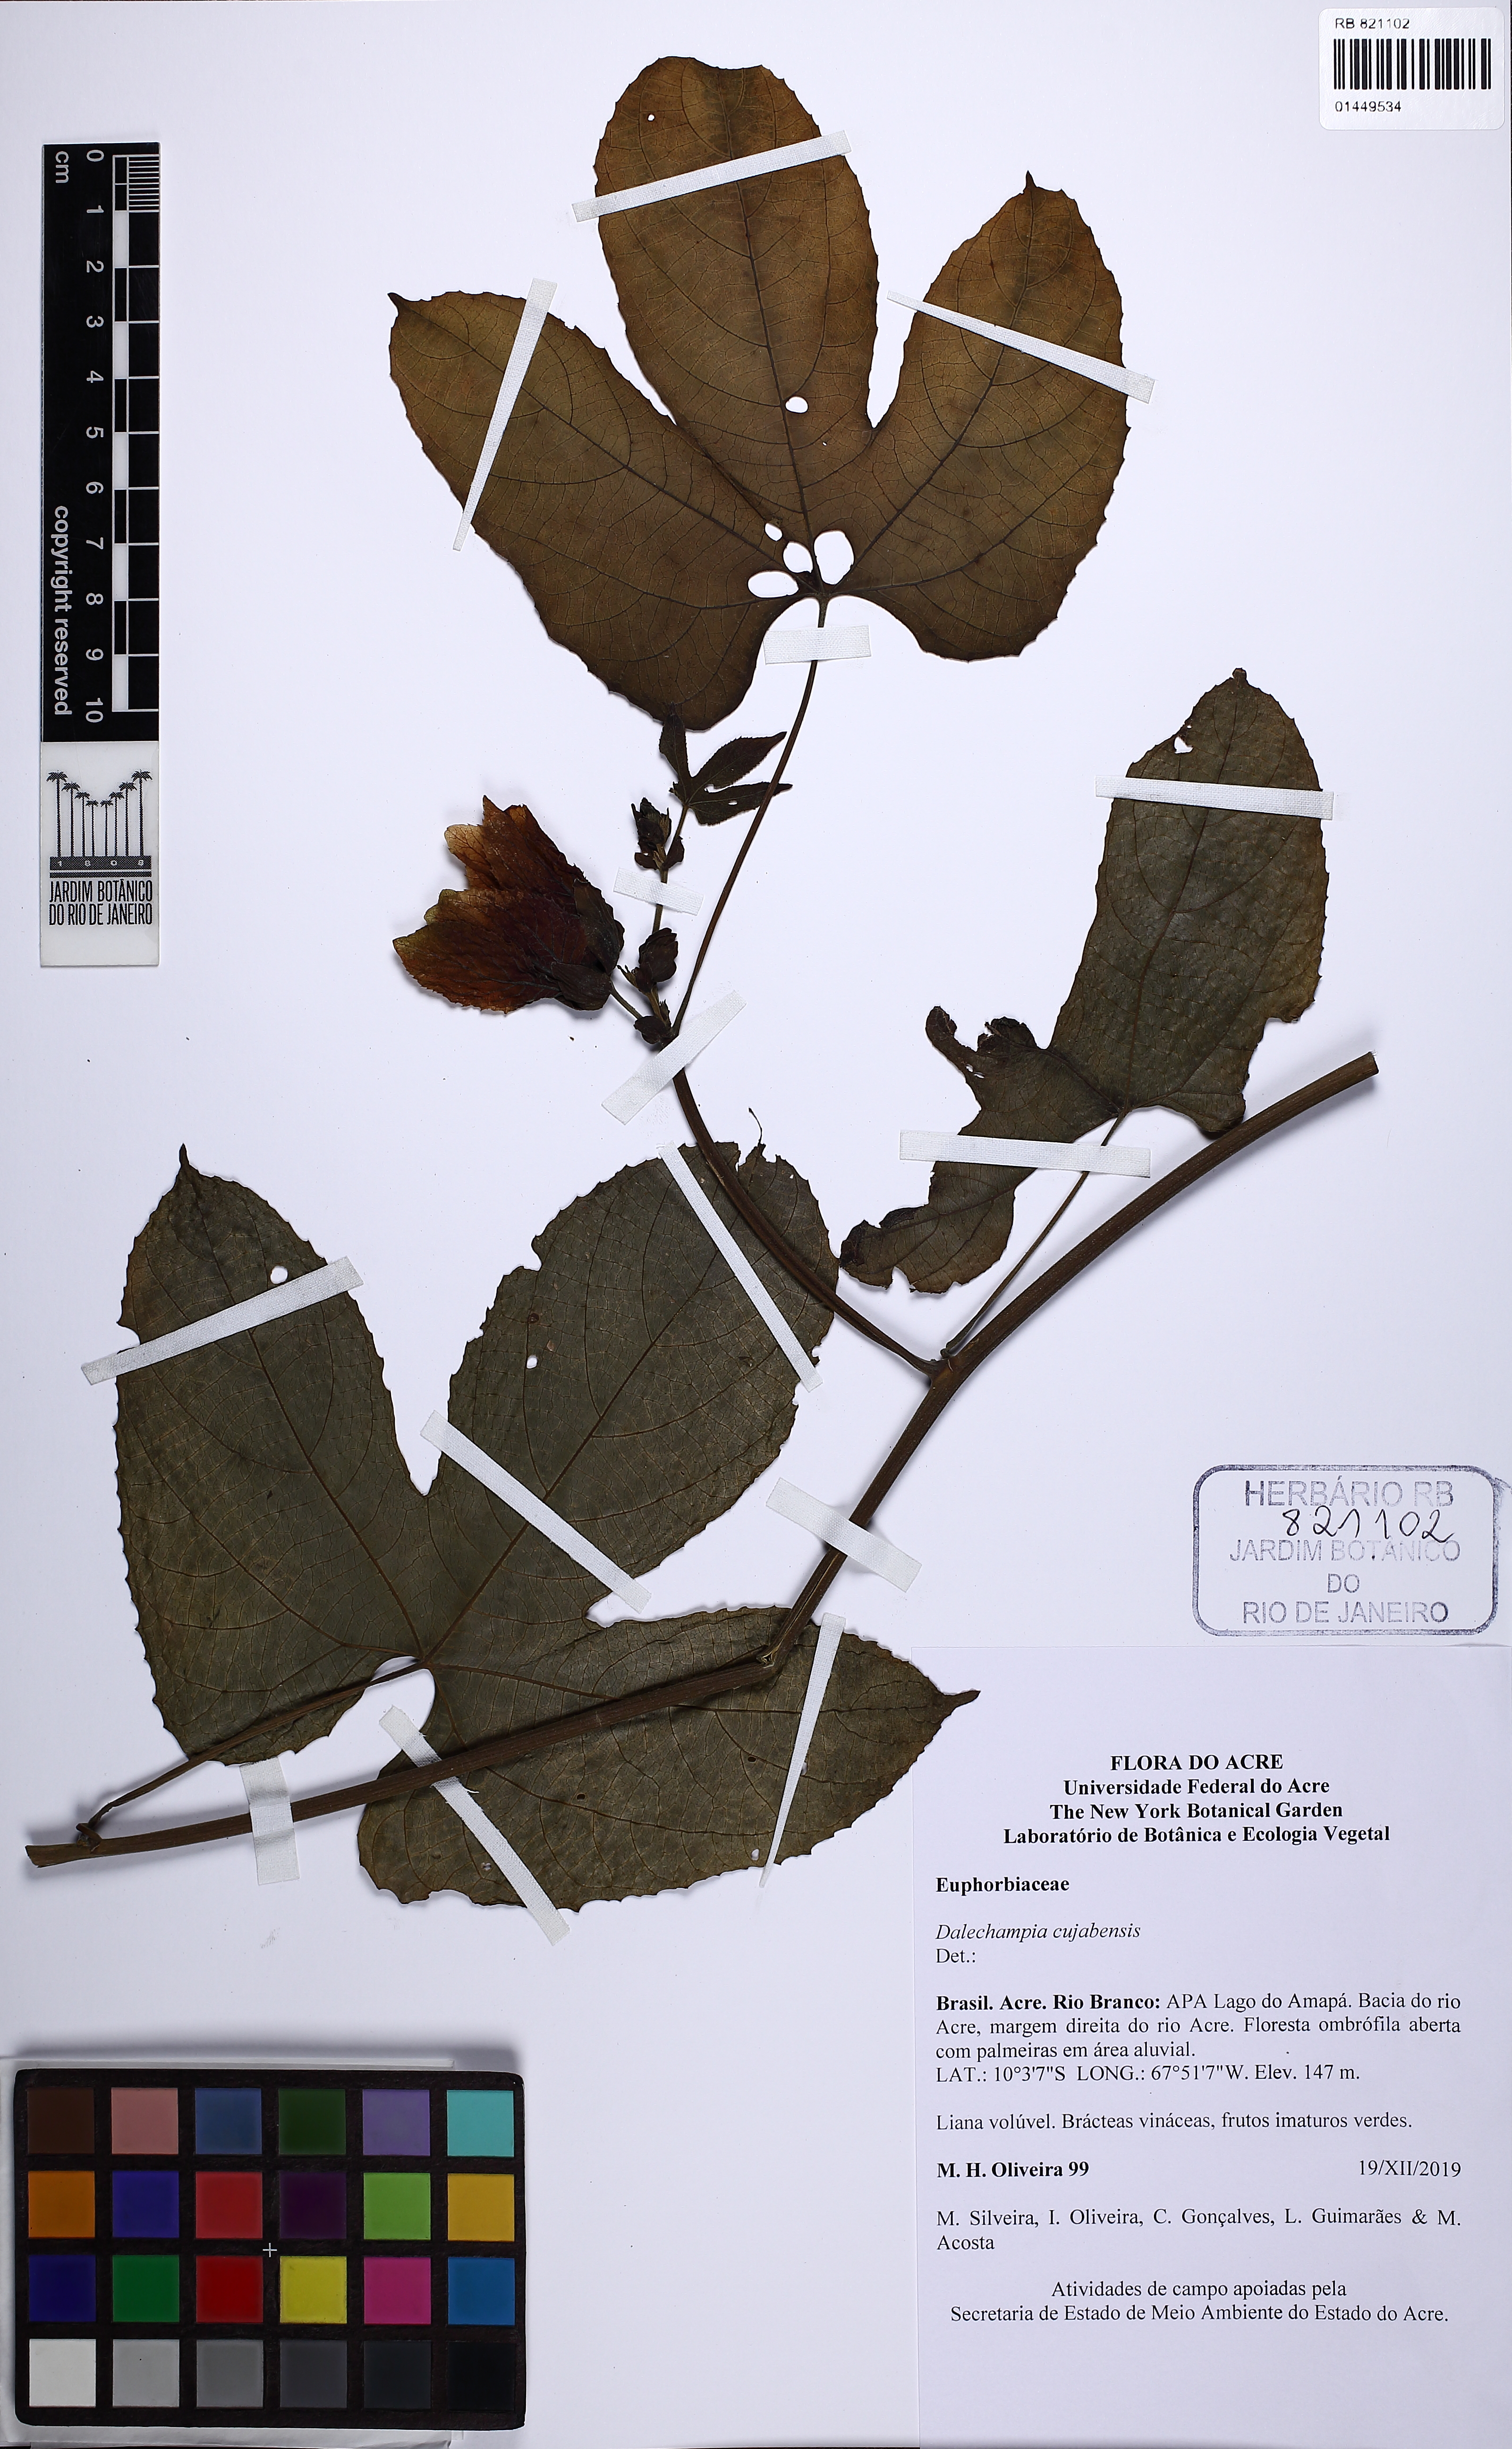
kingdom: Plantae
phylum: Tracheophyta
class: Magnoliopsida
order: Malpighiales
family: Euphorbiaceae
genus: Dalechampia
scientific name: Dalechampia cujabensis
